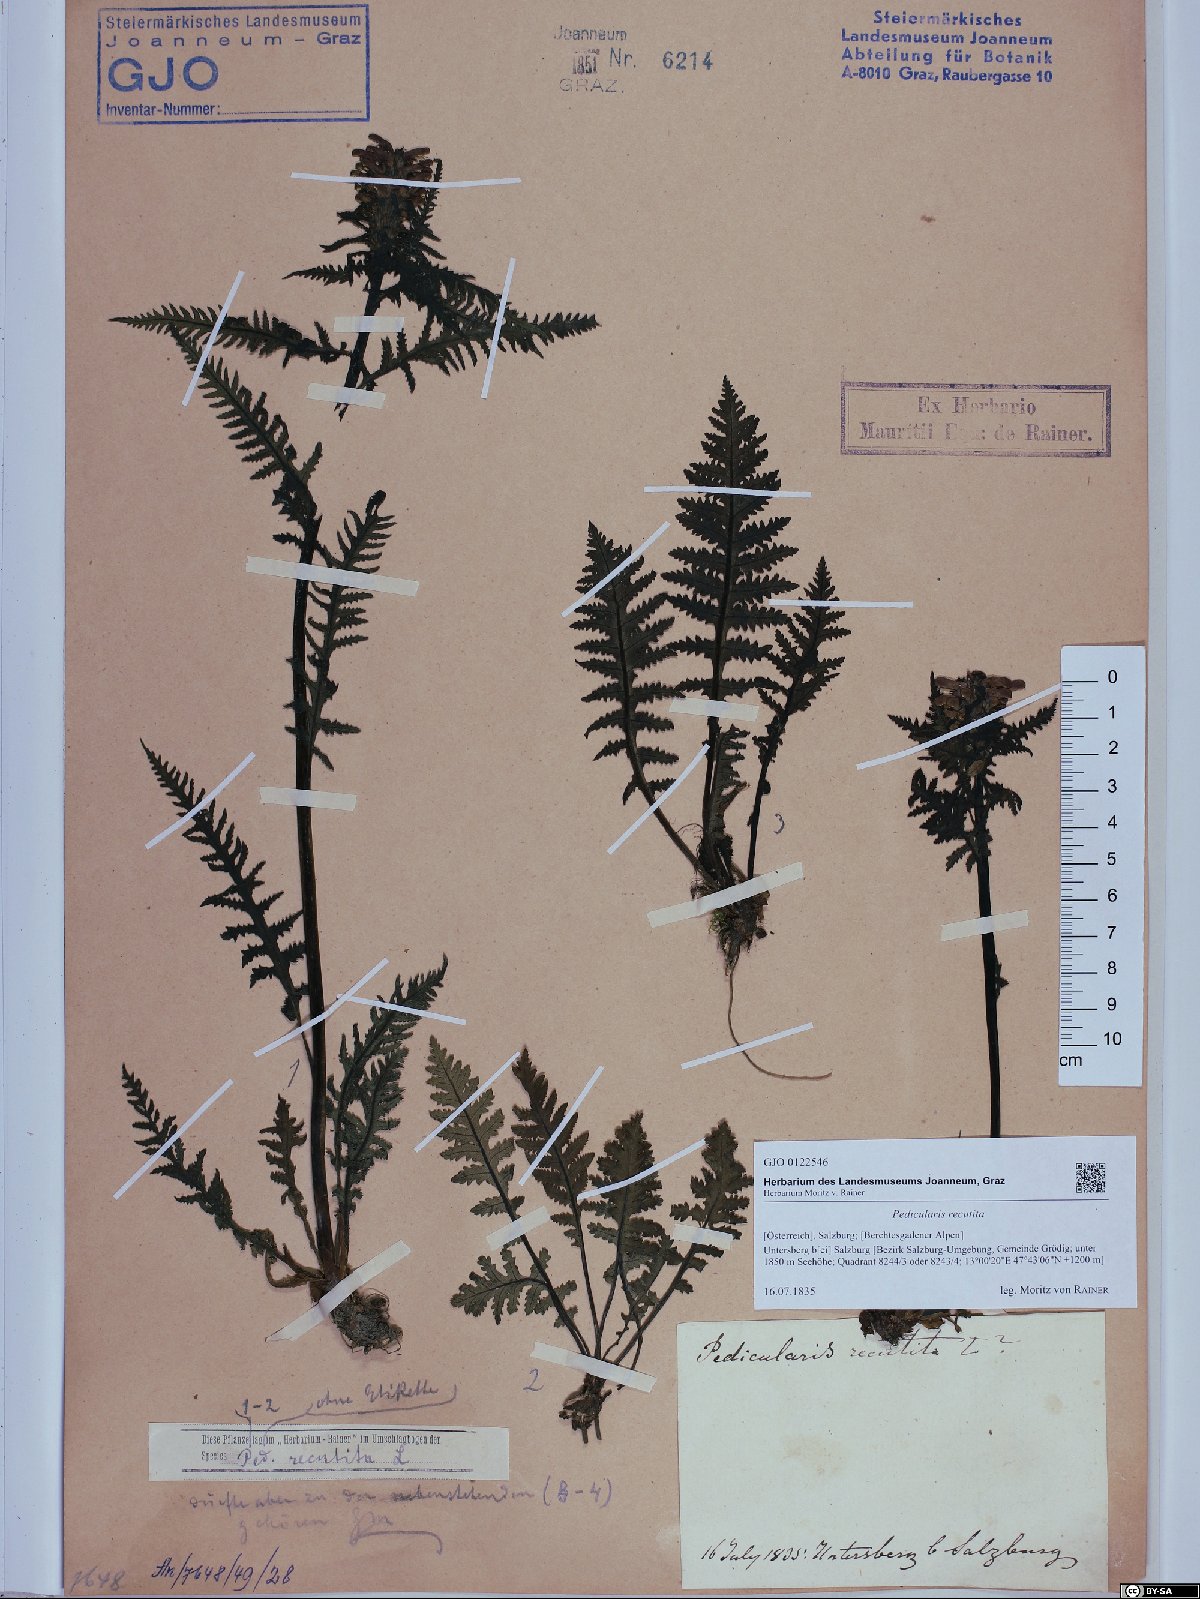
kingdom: Plantae
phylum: Tracheophyta
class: Magnoliopsida
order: Lamiales
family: Orobanchaceae
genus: Pedicularis
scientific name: Pedicularis recutita
